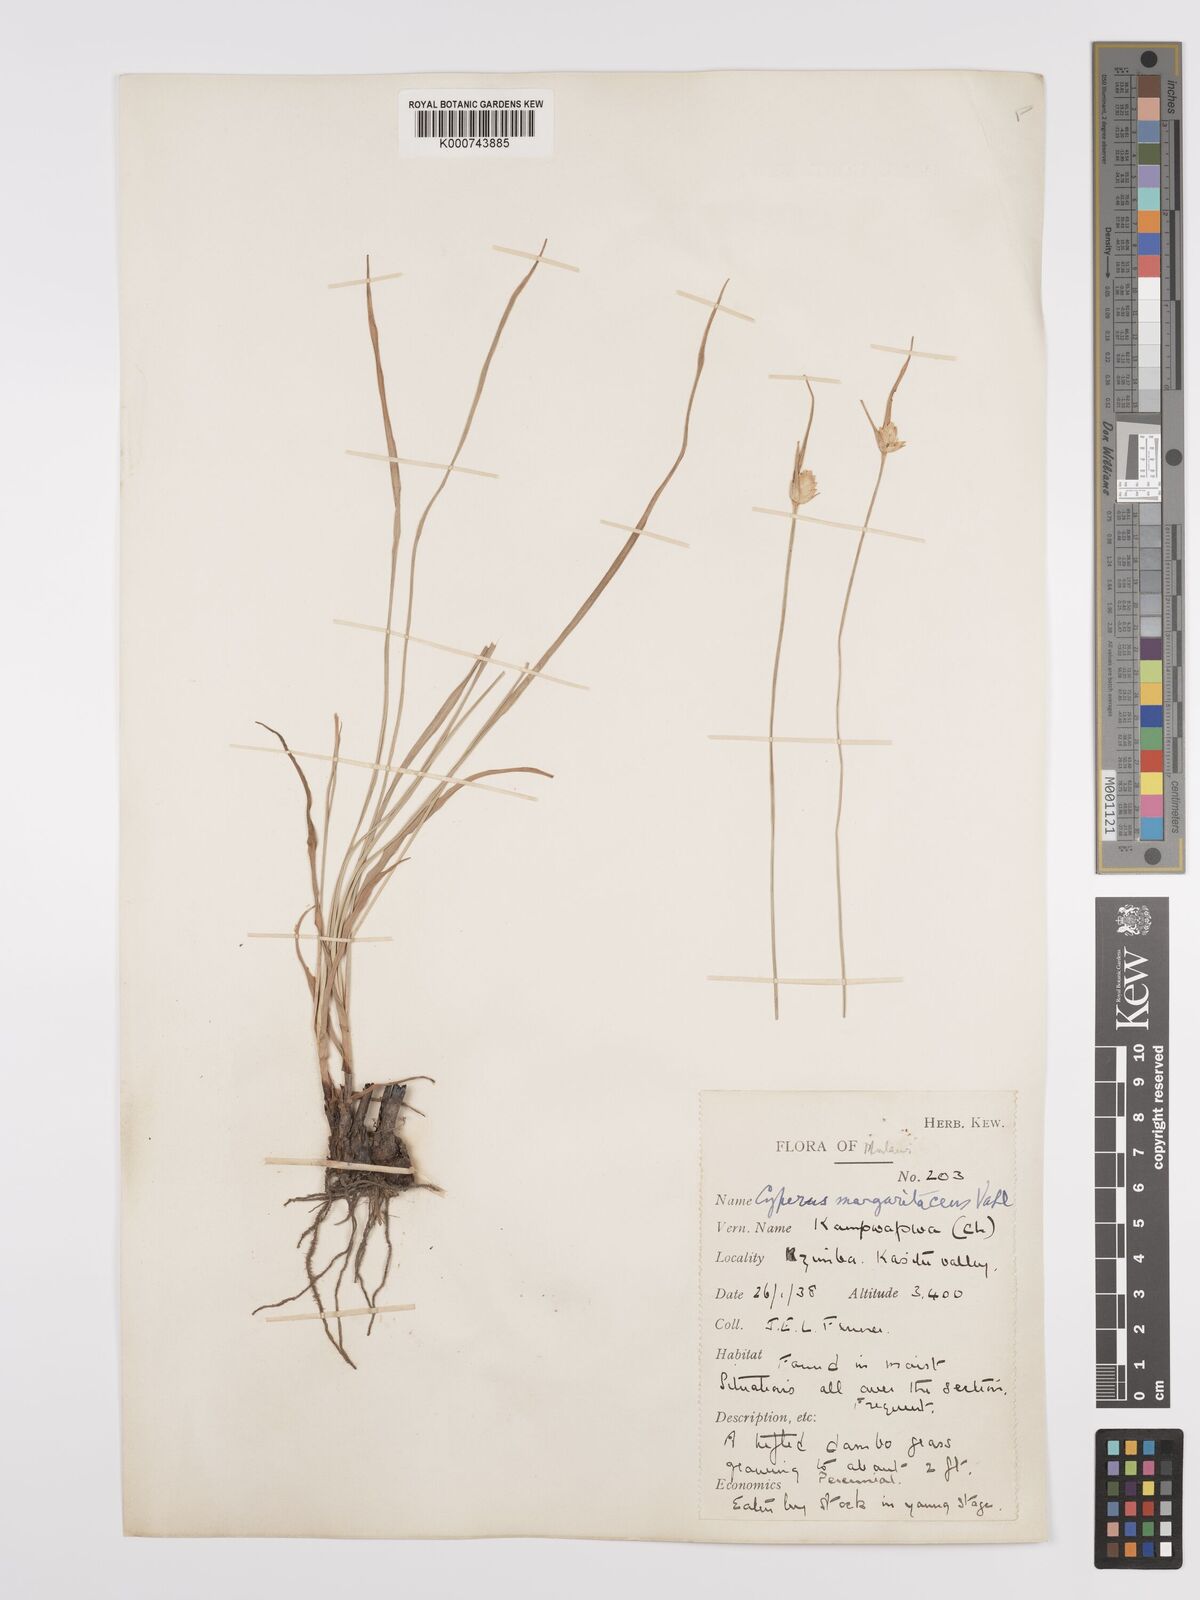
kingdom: Plantae
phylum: Tracheophyta
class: Liliopsida
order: Poales
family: Cyperaceae
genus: Cyperus
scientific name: Cyperus margaritaceus
